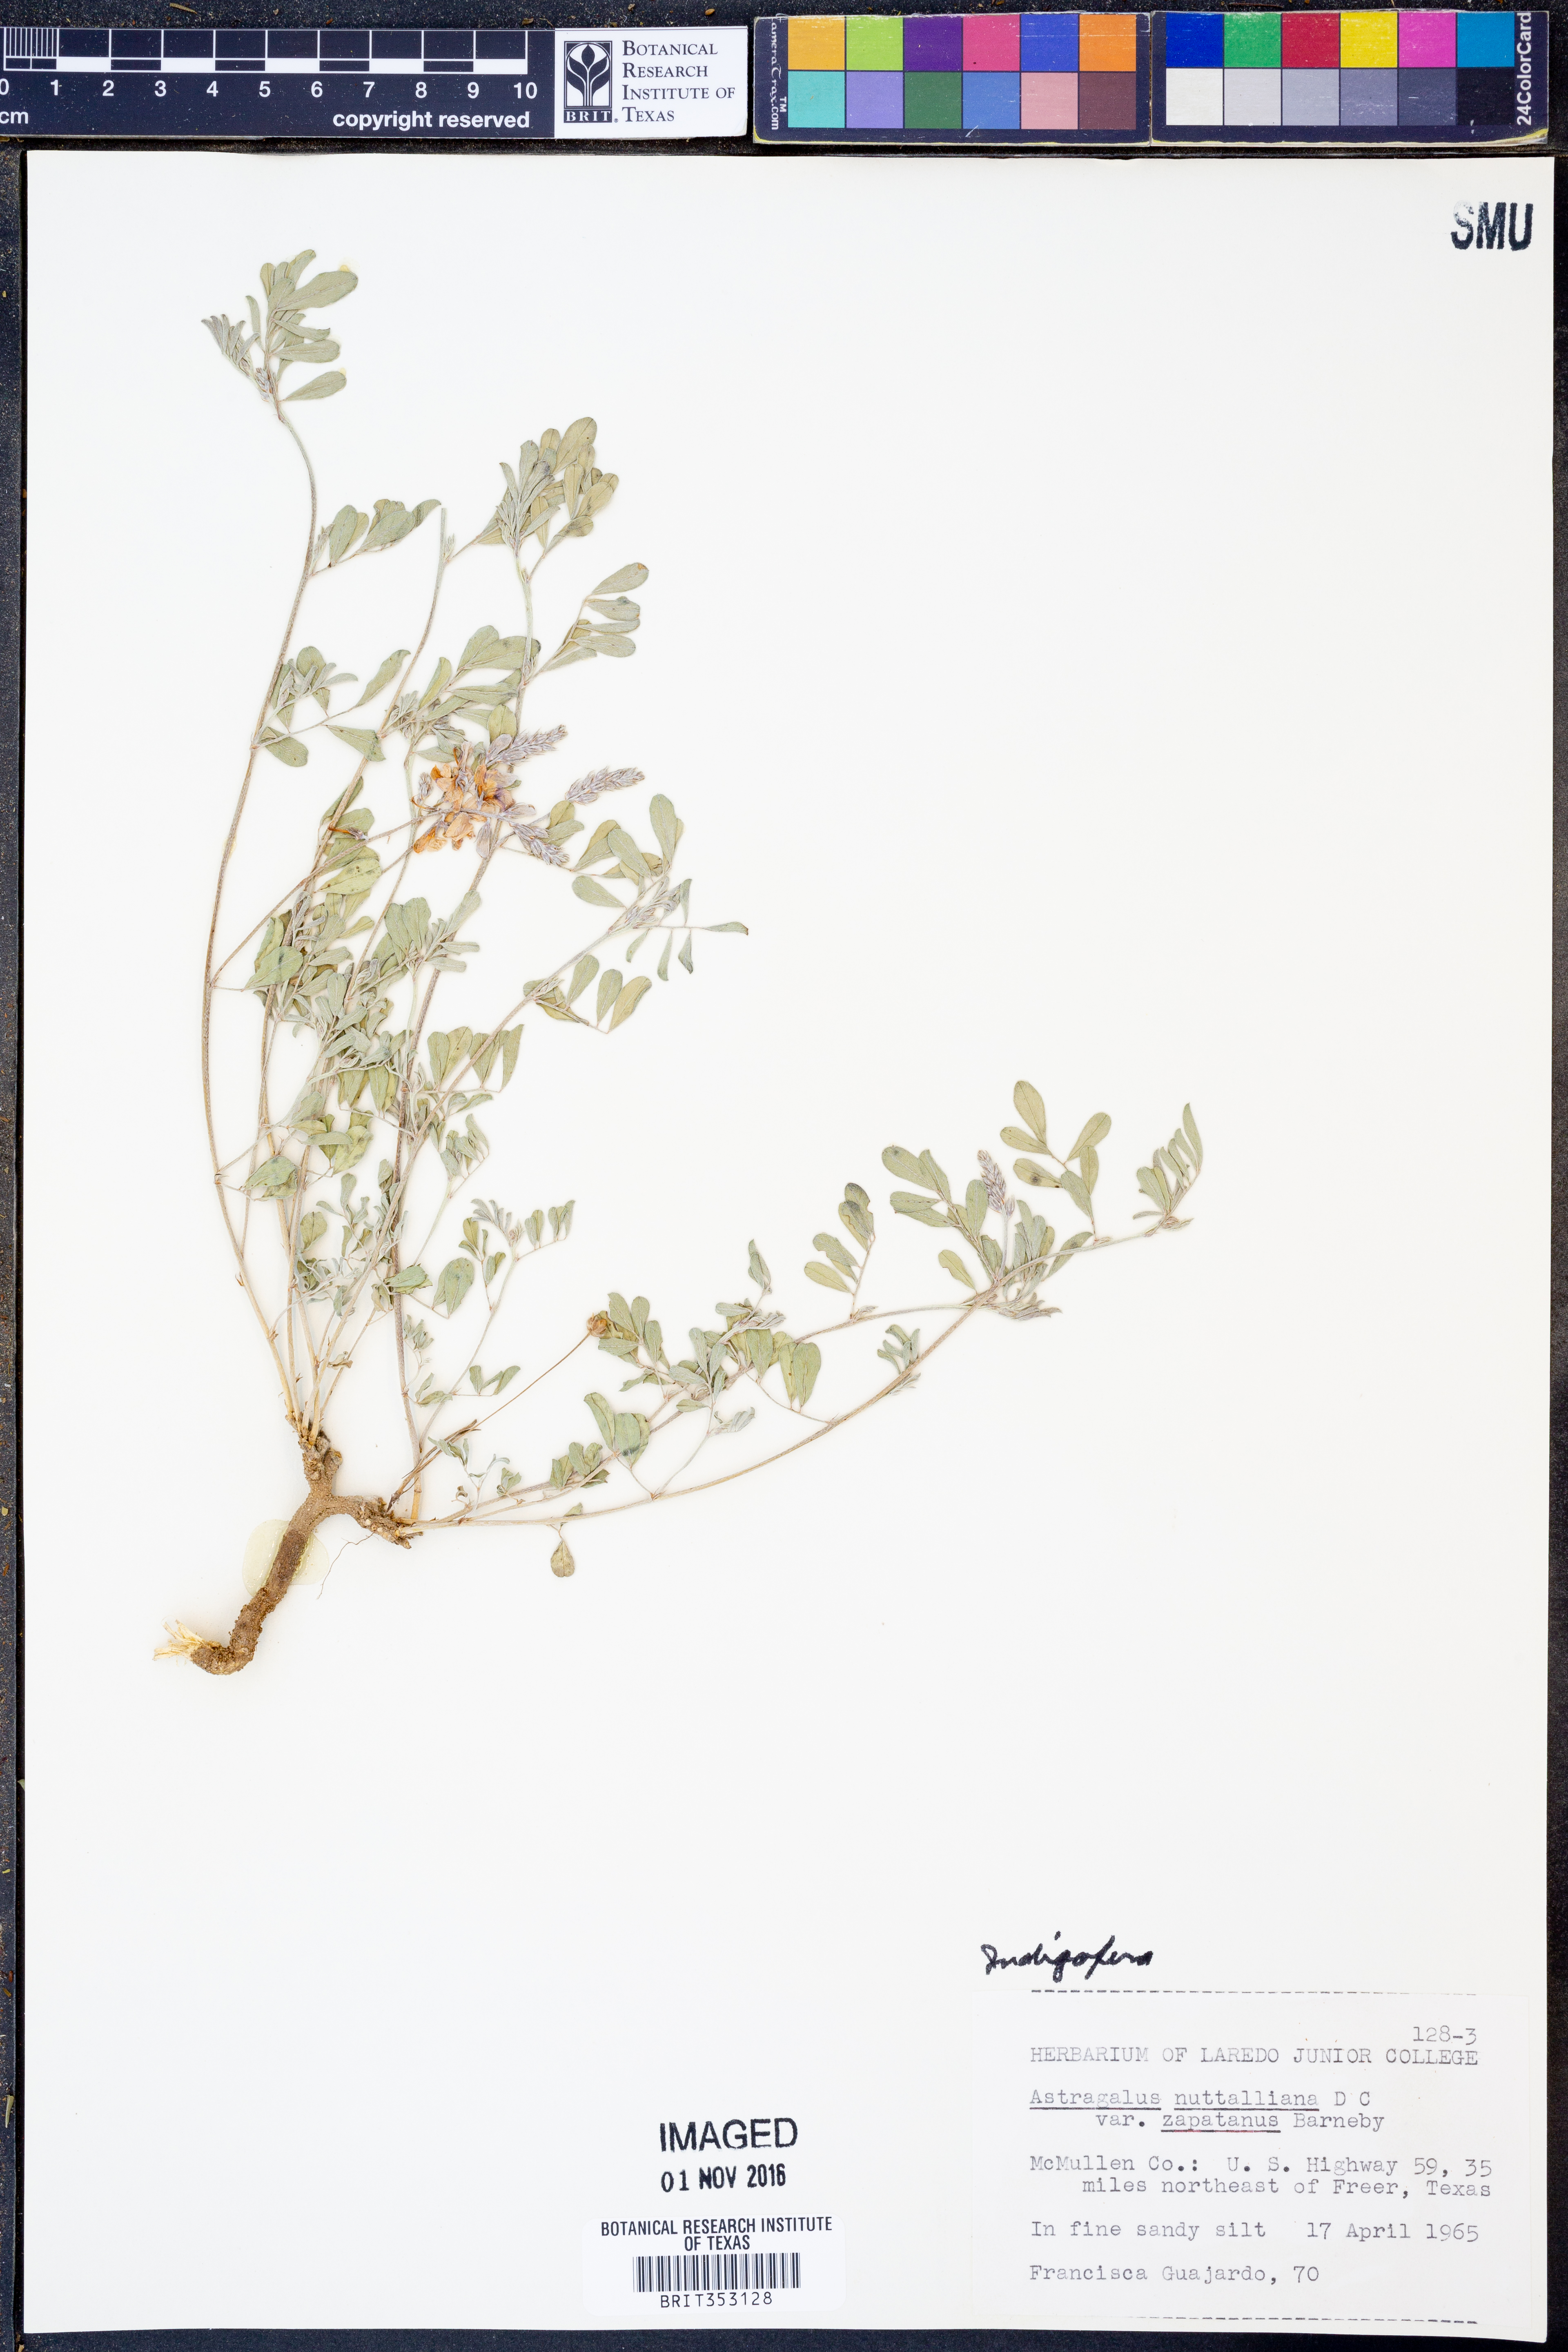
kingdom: Plantae
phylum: Tracheophyta
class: Magnoliopsida
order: Fabales
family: Fabaceae
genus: Indigofera
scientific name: Indigofera
